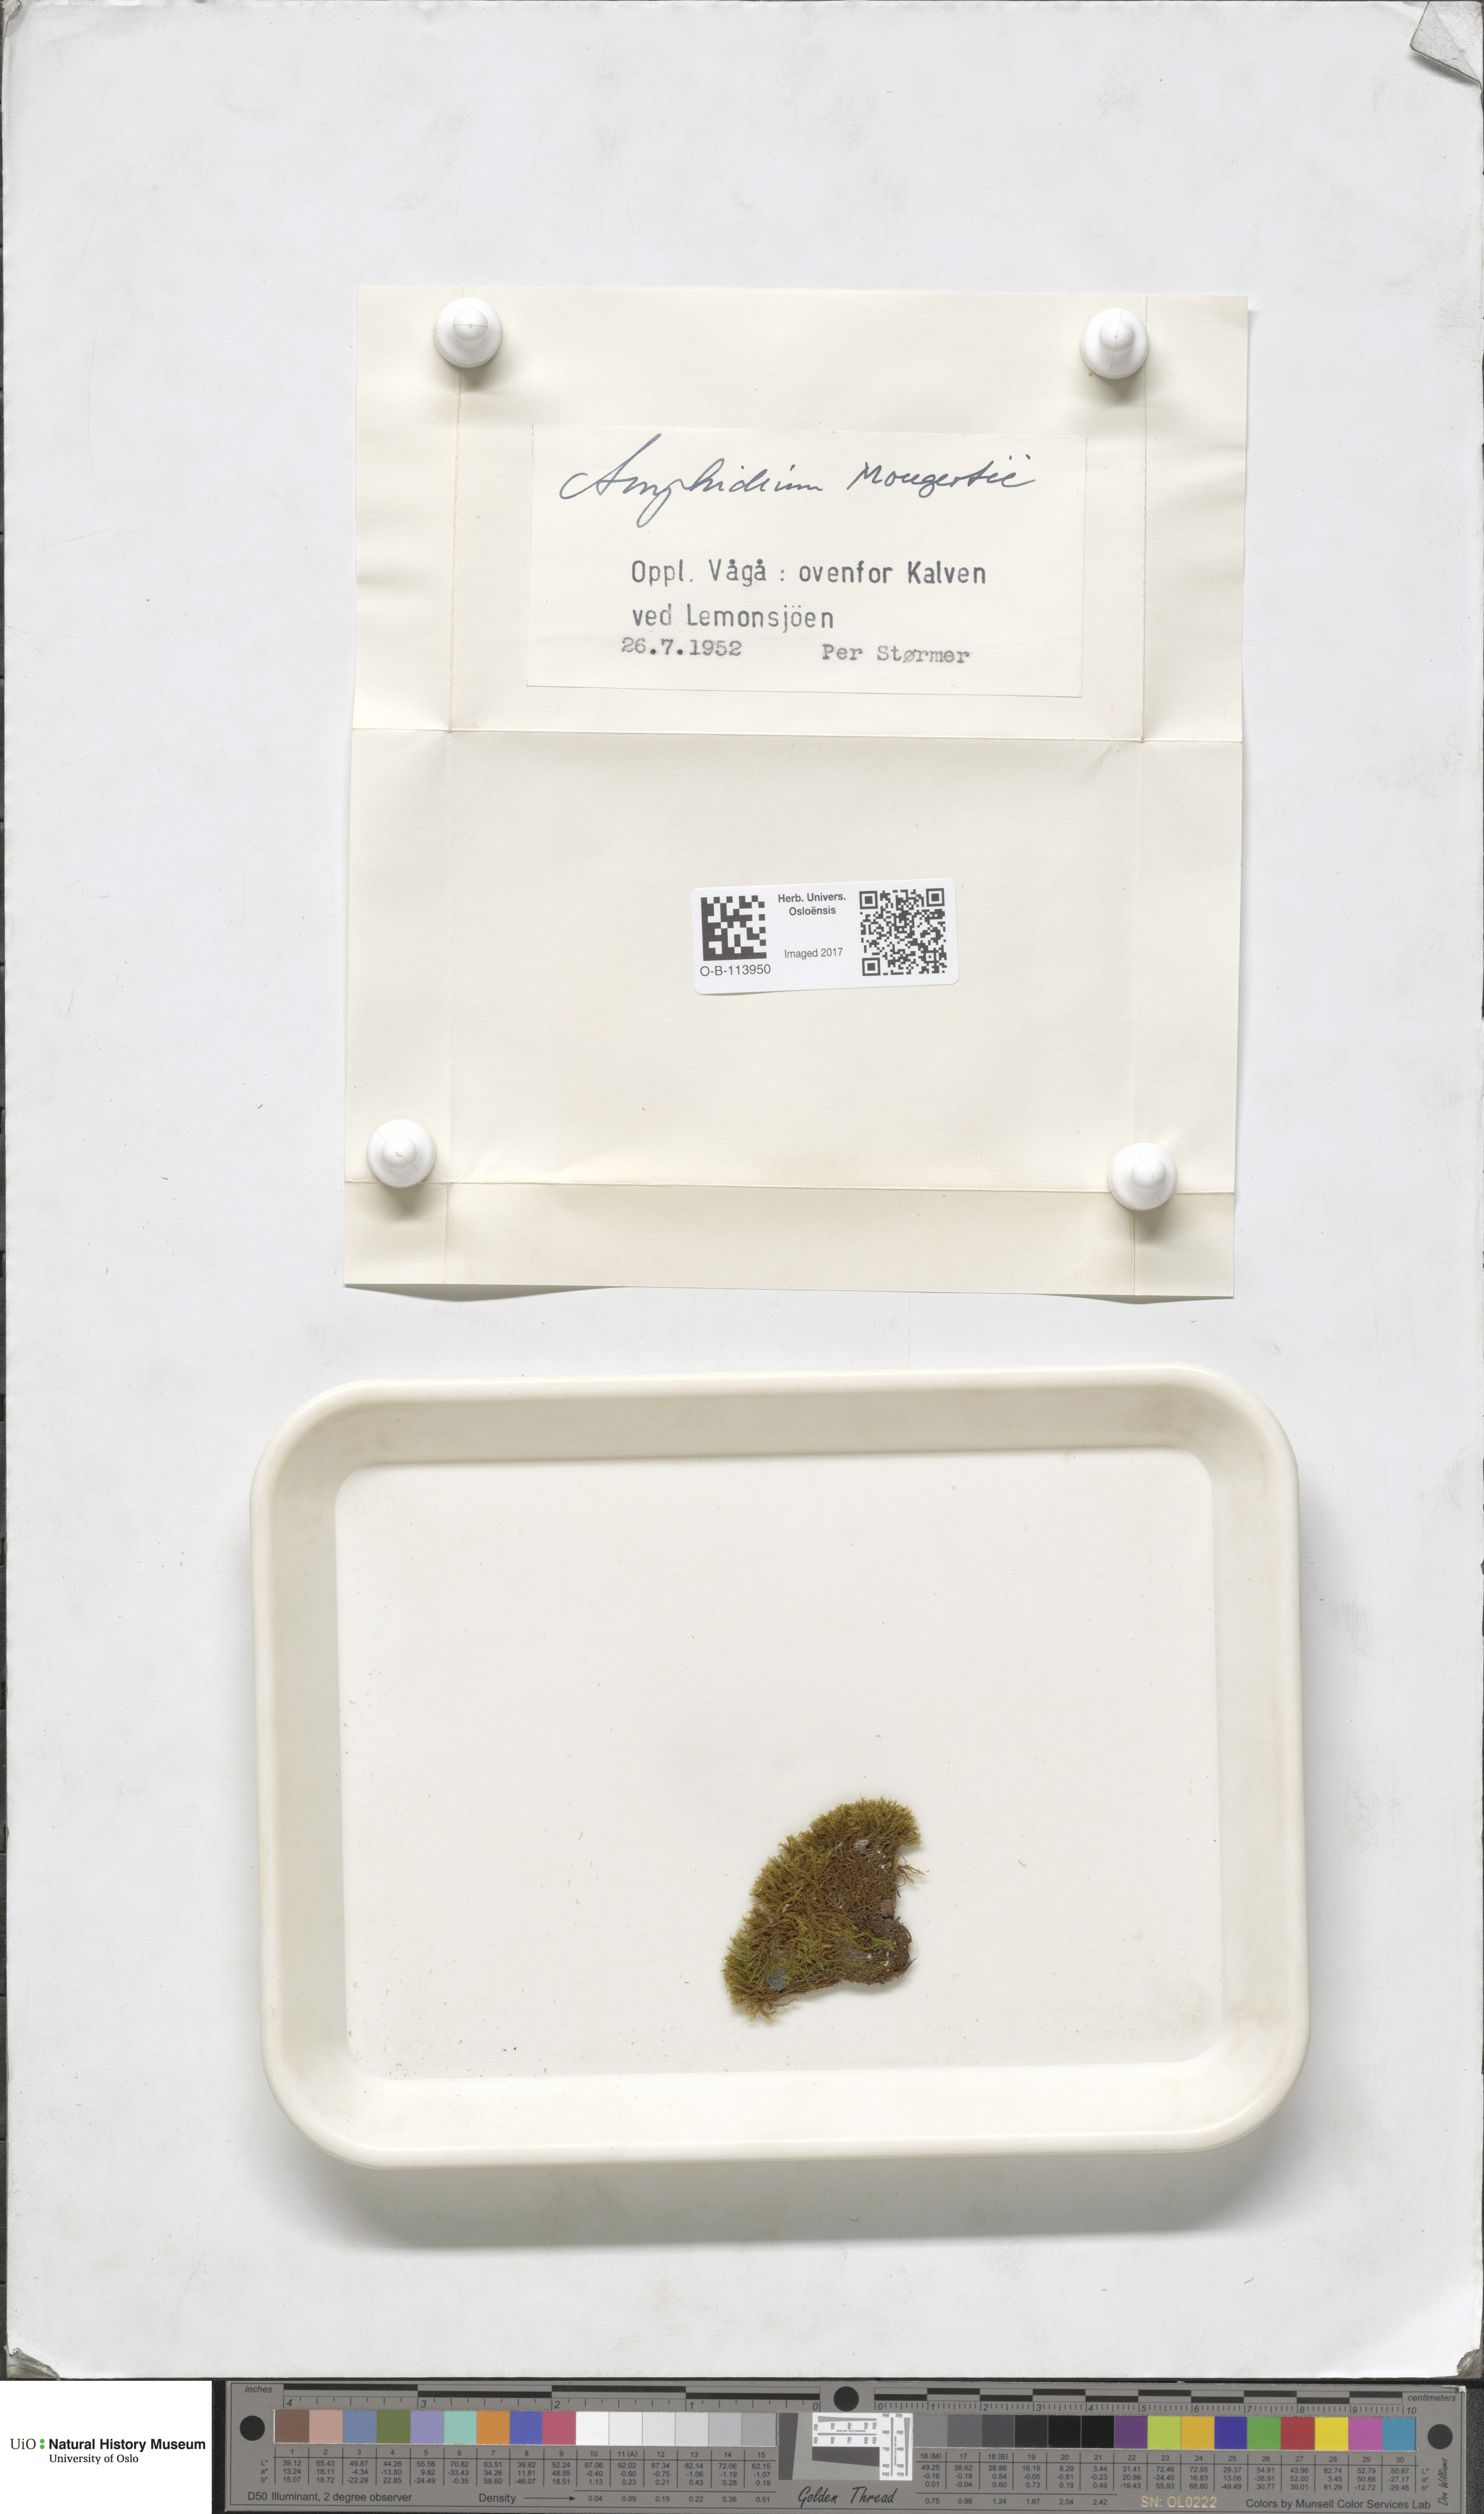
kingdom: Plantae
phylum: Bryophyta
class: Bryopsida
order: Dicranales
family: Amphidiaceae
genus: Amphidium
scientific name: Amphidium mougeotii
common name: Mougeot's yoke moss
